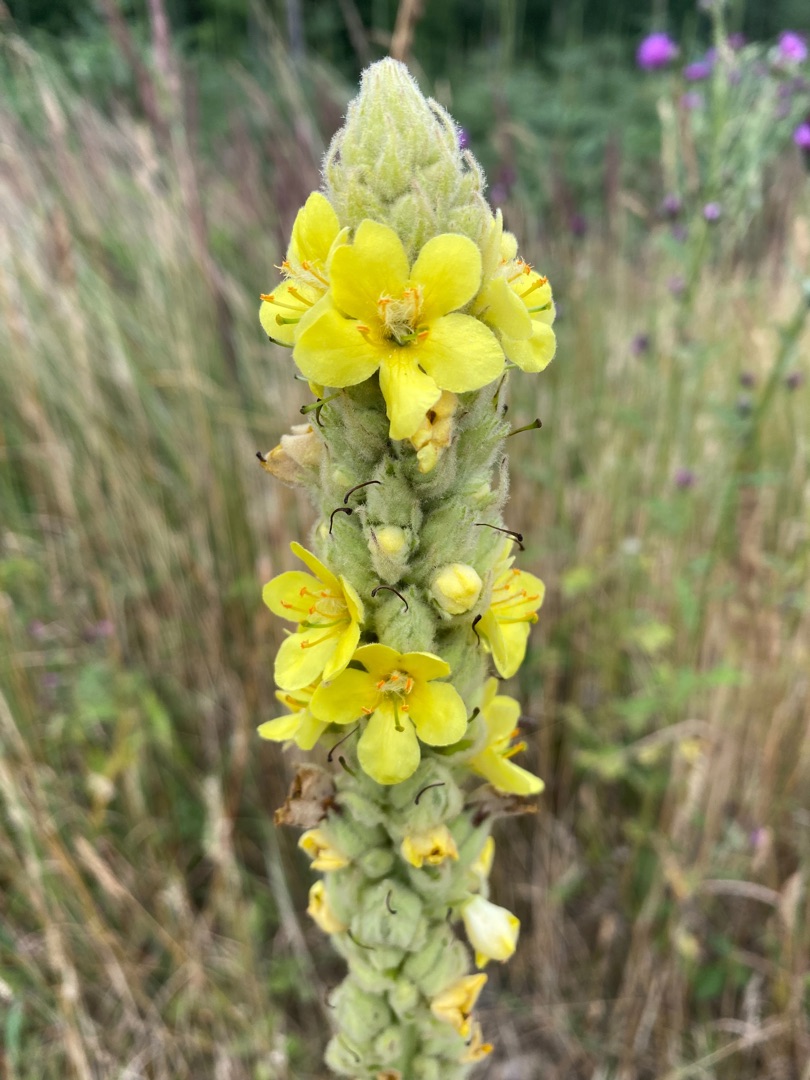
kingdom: Plantae
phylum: Tracheophyta
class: Magnoliopsida
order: Lamiales
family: Scrophulariaceae
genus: Verbascum
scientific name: Verbascum thapsus
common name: Filtbladet kongelys
